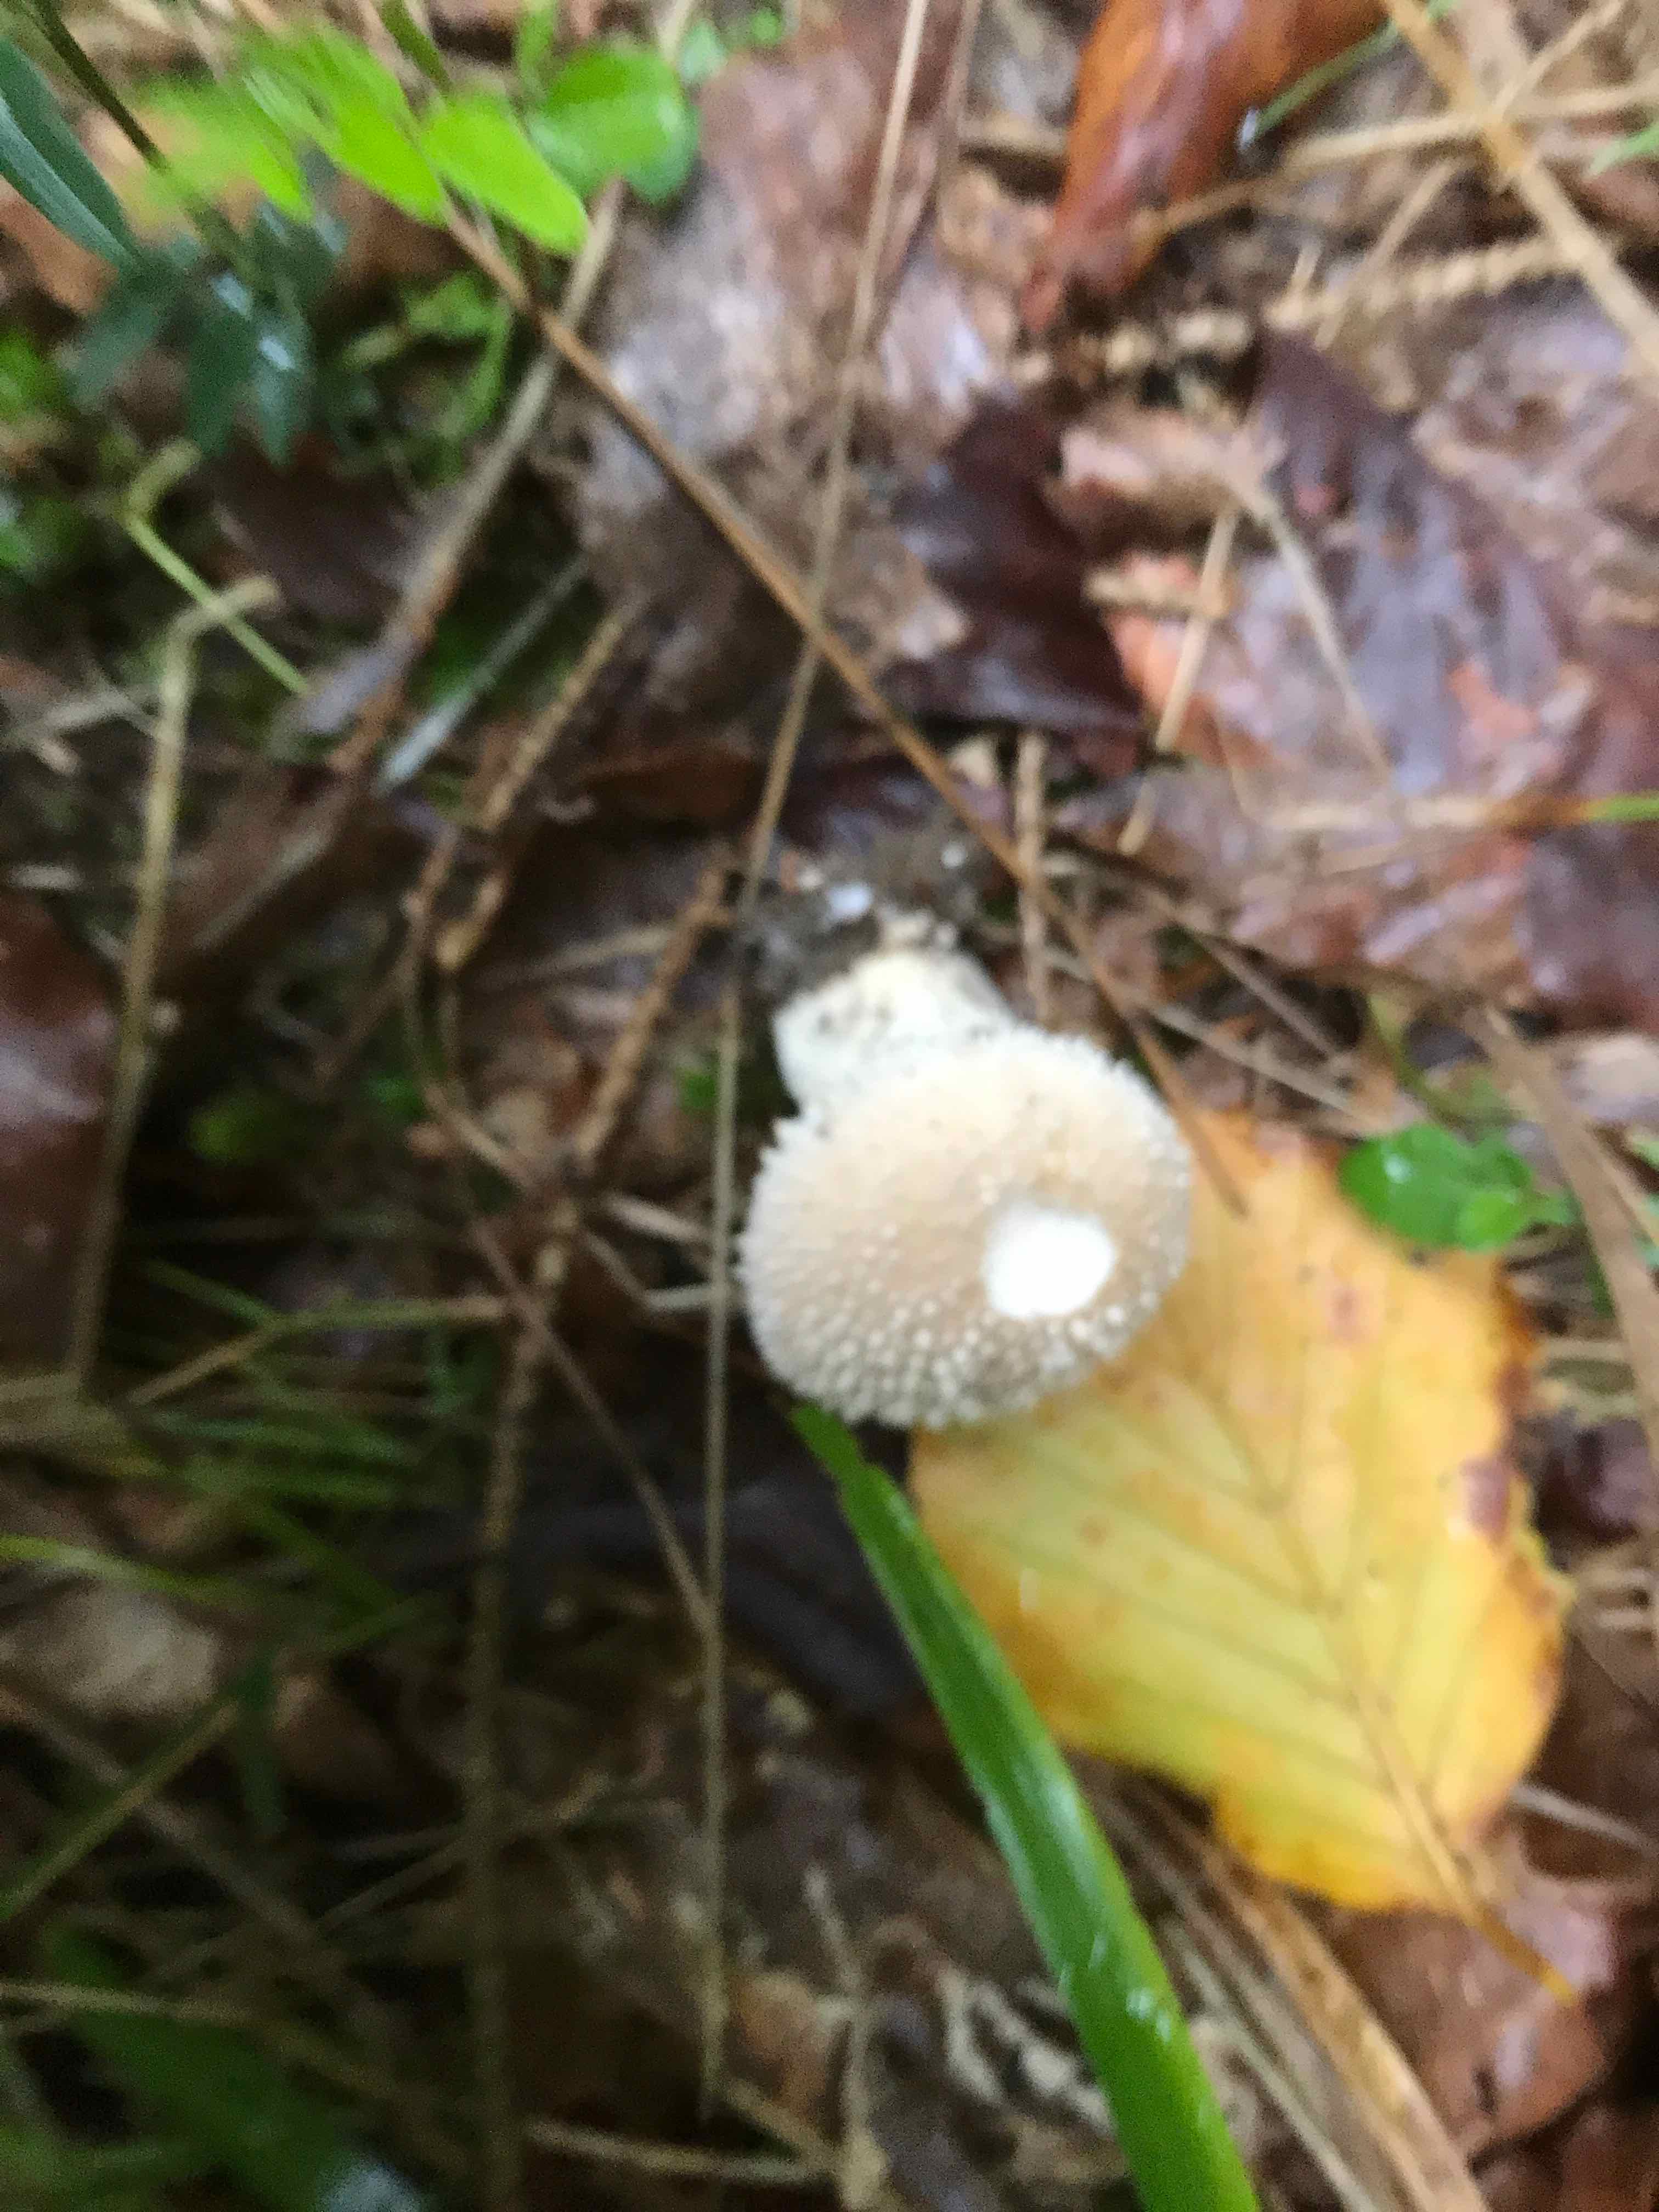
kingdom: Fungi
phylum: Basidiomycota
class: Agaricomycetes
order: Agaricales
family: Lycoperdaceae
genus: Lycoperdon
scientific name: Lycoperdon perlatum
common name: krystal-støvbold
